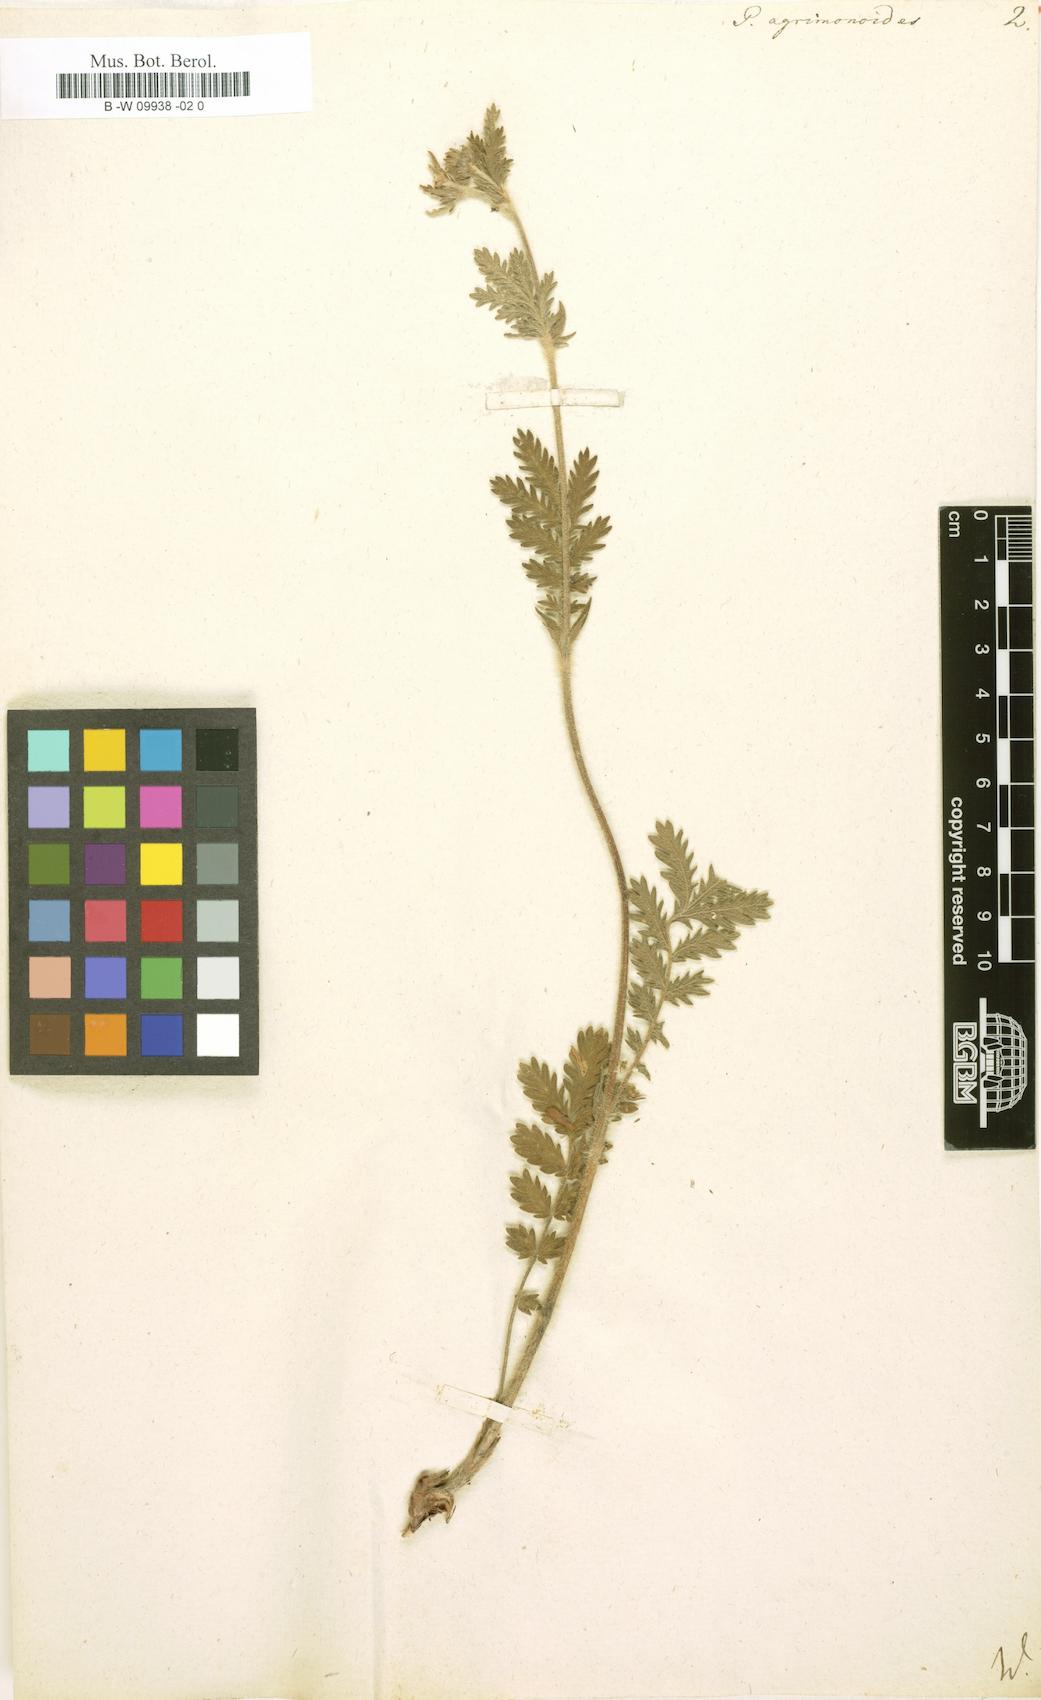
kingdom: Plantae
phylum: Tracheophyta
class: Magnoliopsida
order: Rosales
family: Rosaceae
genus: Potentilla
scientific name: Potentilla agrimonoides
